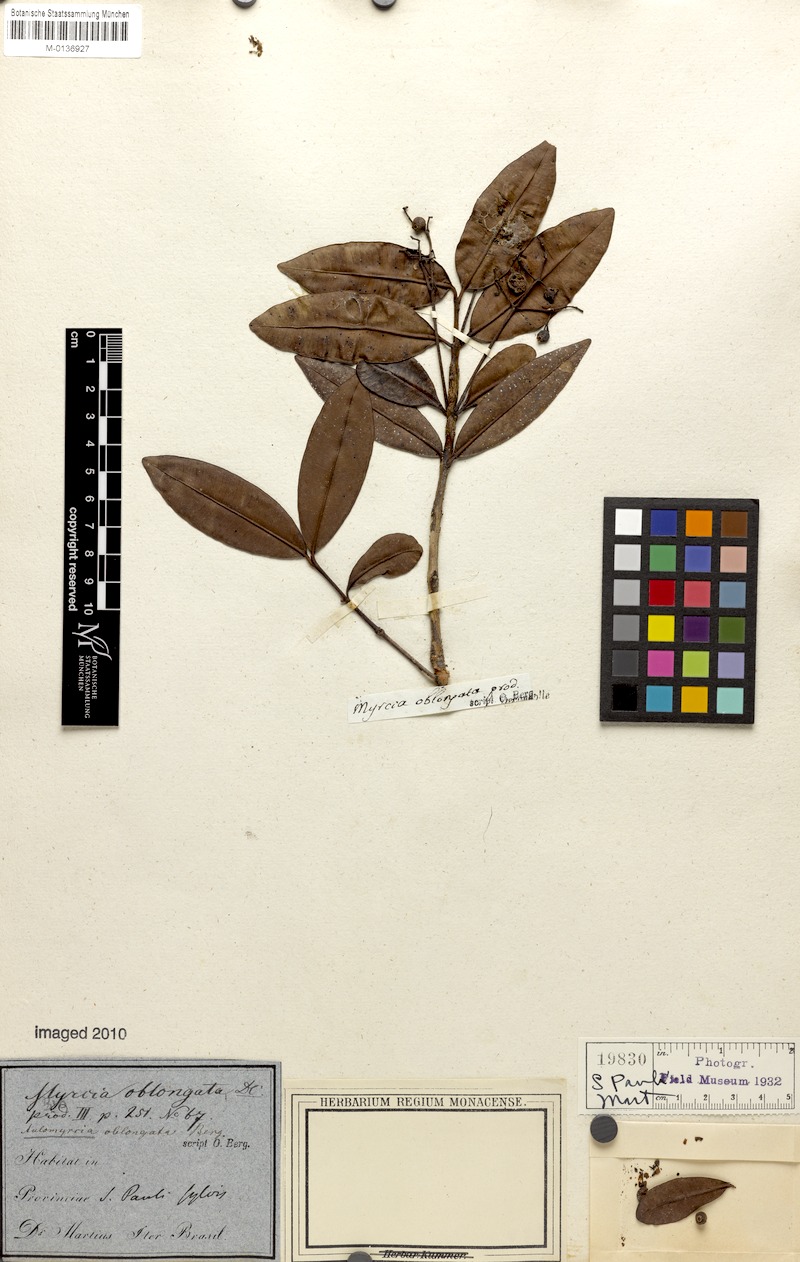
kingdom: Plantae
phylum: Tracheophyta
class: Magnoliopsida
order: Myrtales
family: Myrtaceae
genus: Myrcia
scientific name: Myrcia oblongata
